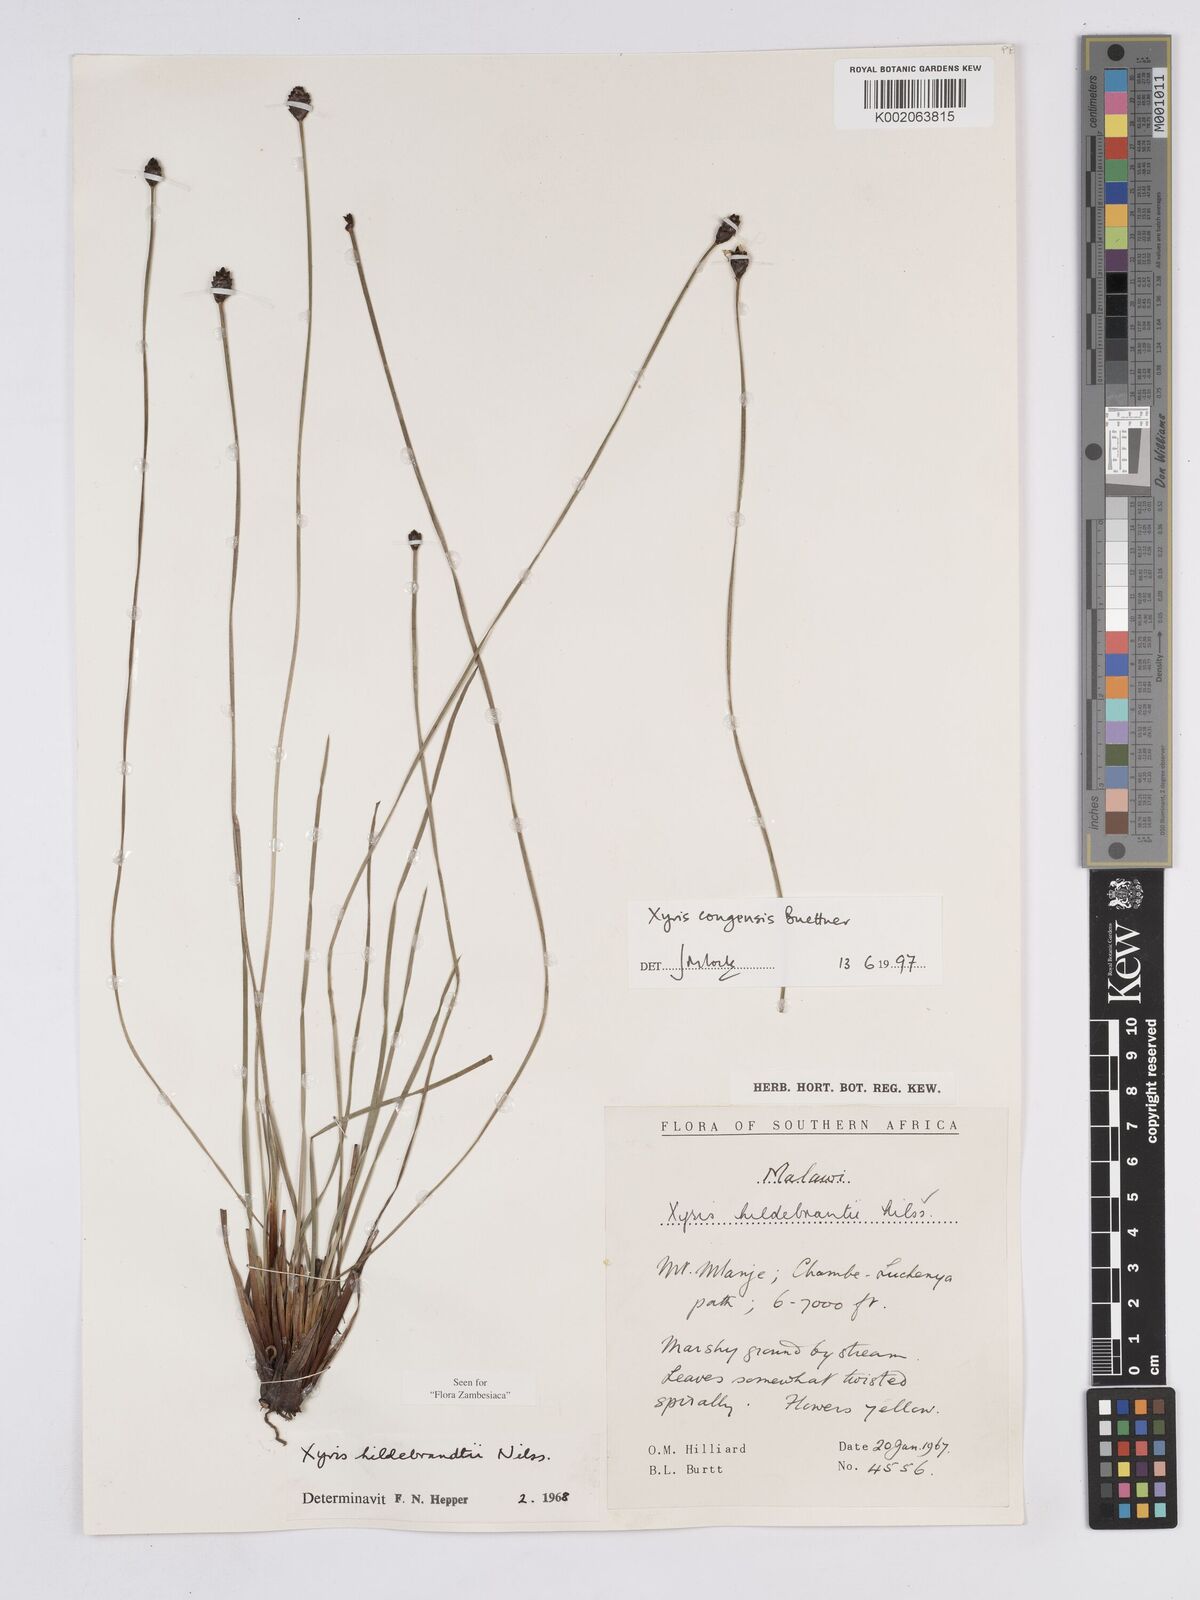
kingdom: Plantae
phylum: Tracheophyta
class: Liliopsida
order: Poales
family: Xyridaceae
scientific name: Xyridaceae
